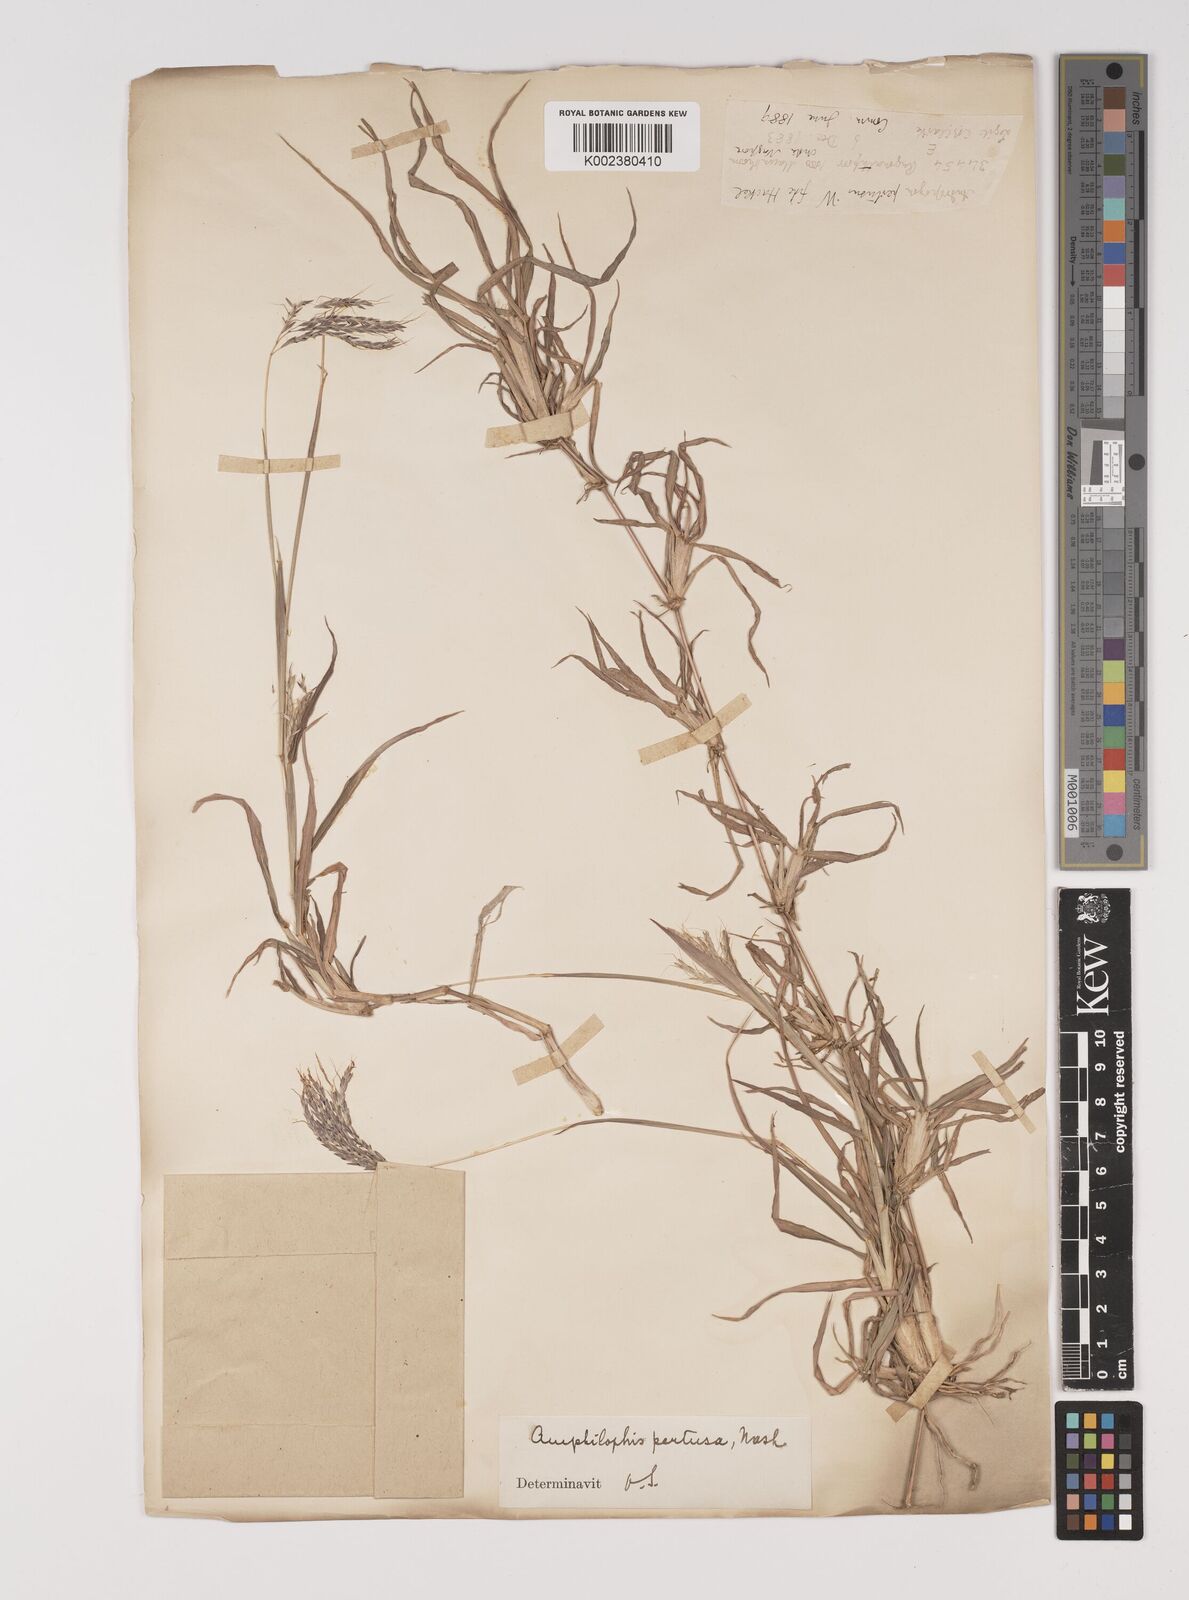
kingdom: Plantae
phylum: Tracheophyta
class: Liliopsida
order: Poales
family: Poaceae
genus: Bothriochloa
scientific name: Bothriochloa pertusa
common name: Pitted beardgrass
